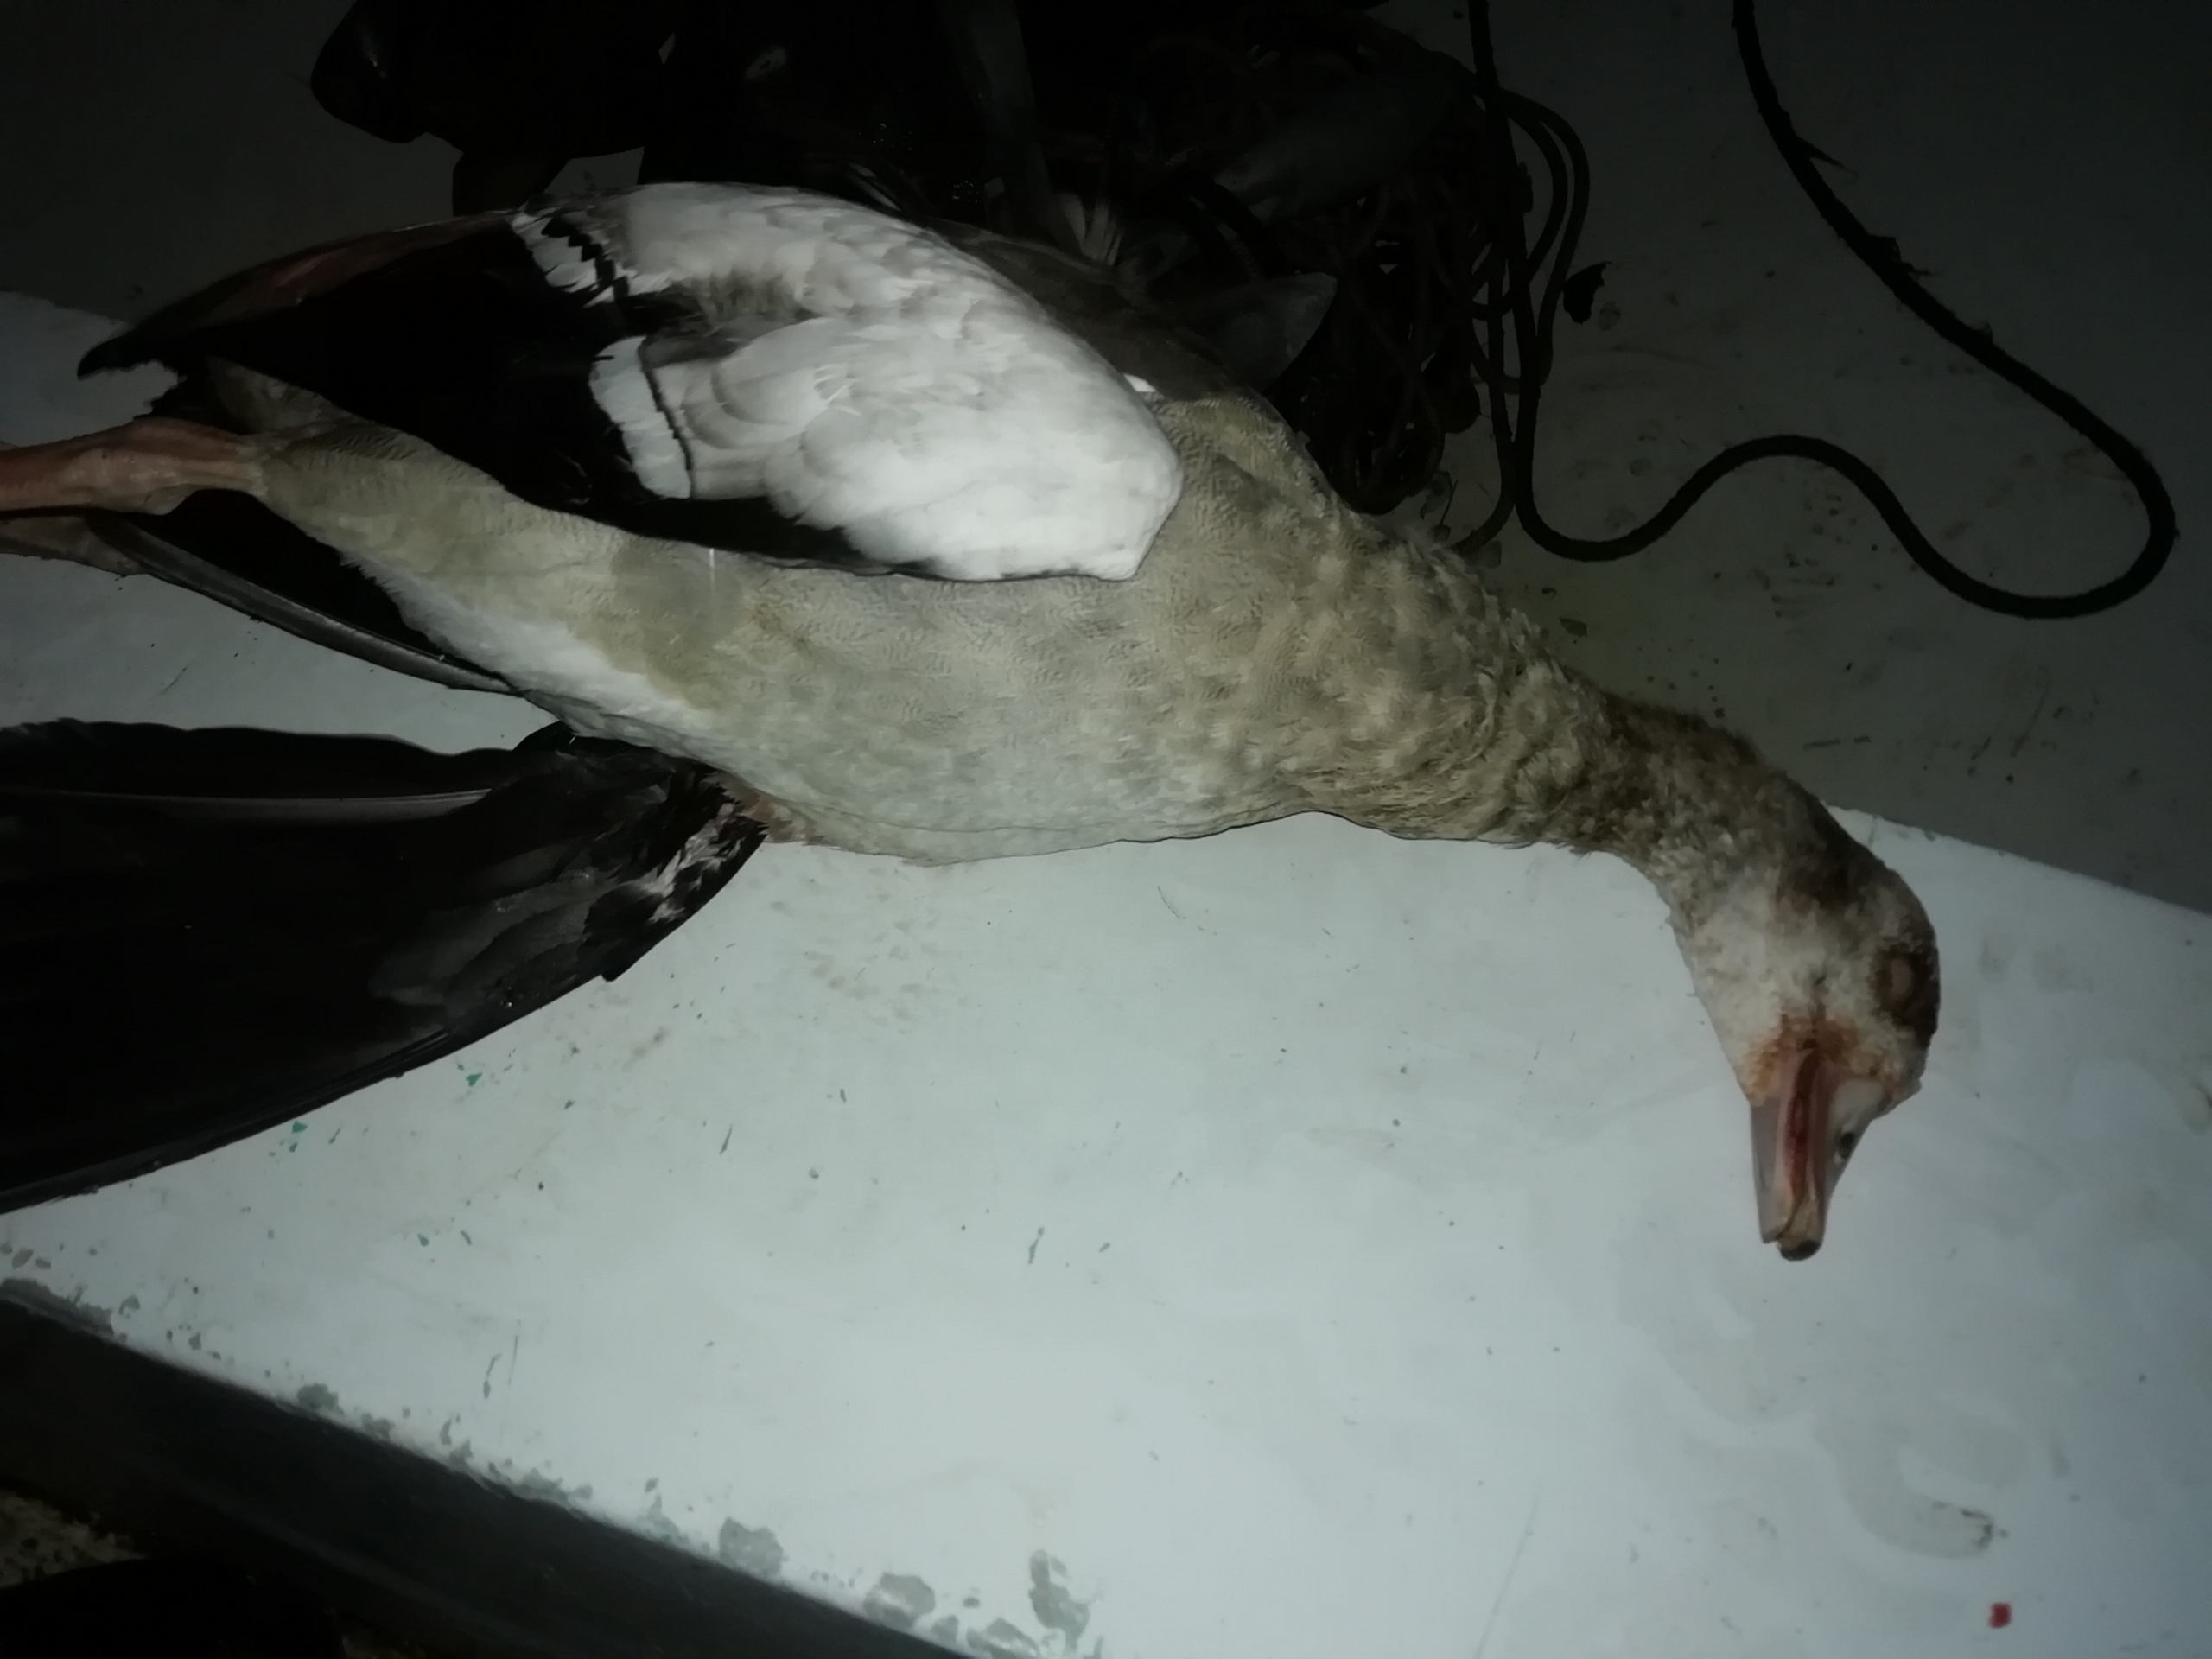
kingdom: Animalia
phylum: Chordata
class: Aves
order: Anseriformes
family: Anatidae
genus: Alopochen
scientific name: Alopochen aegyptiaca
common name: Nilgås
